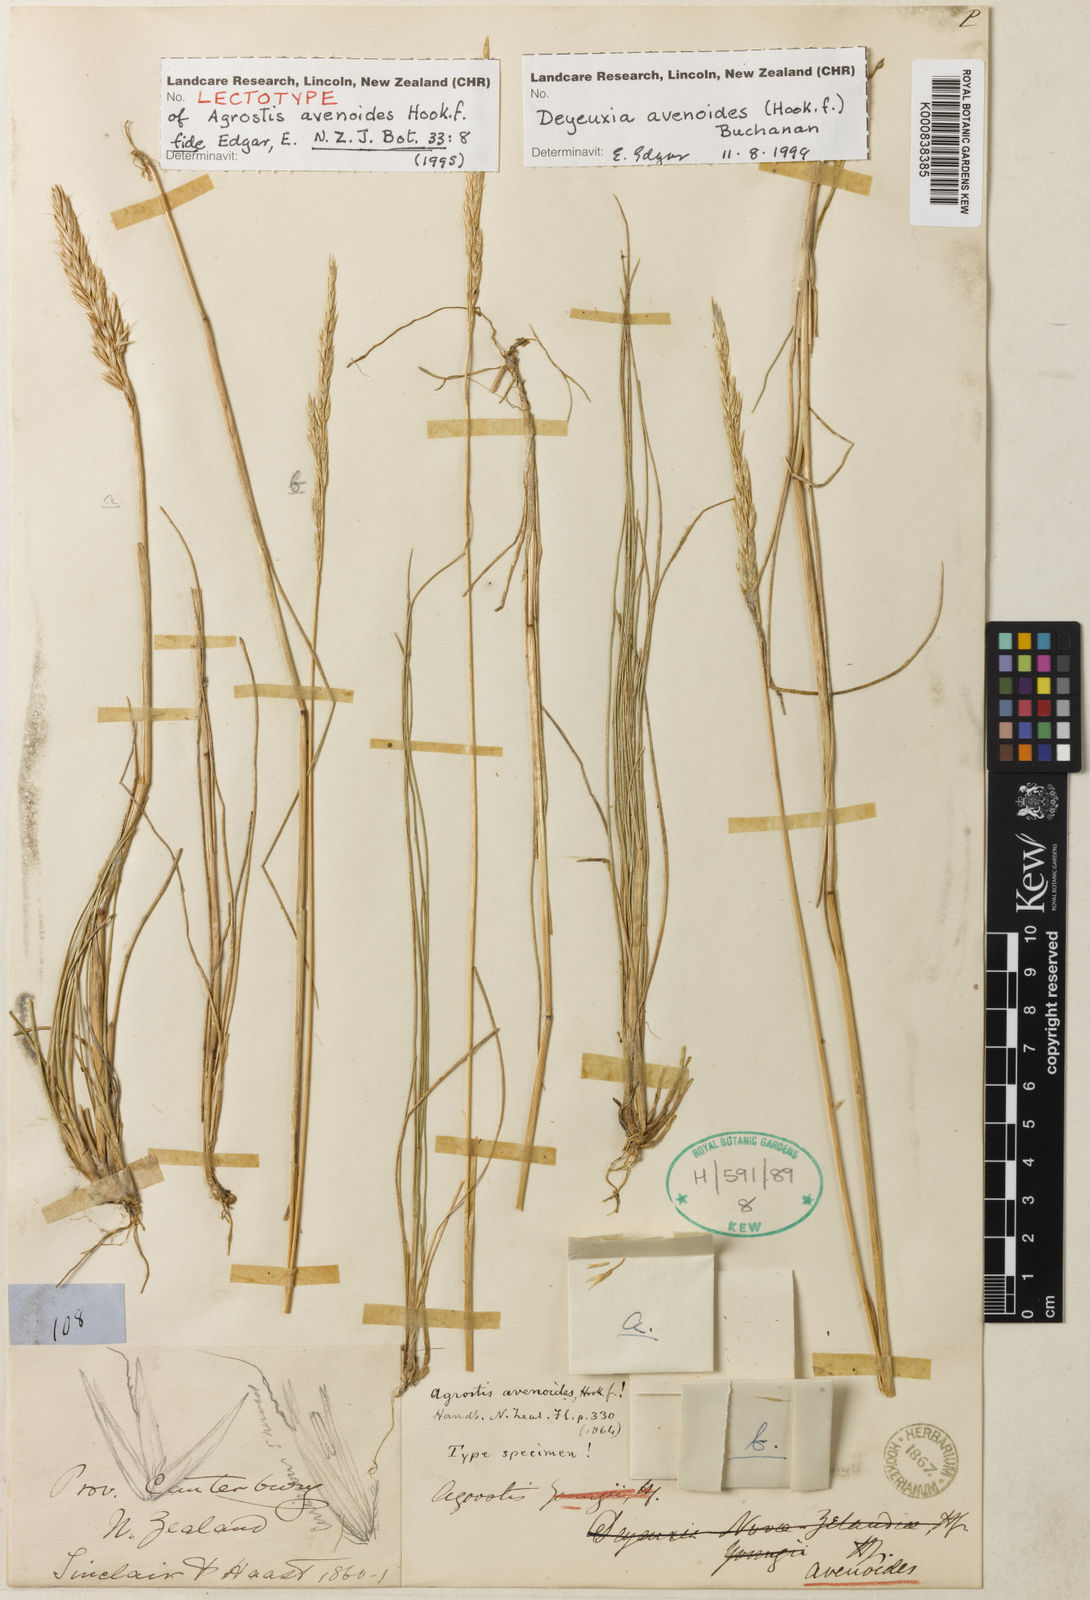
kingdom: Plantae
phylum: Tracheophyta
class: Liliopsida
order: Poales
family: Poaceae
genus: Calamagrostis
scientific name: Calamagrostis avenoides
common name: Mountain oat grass
